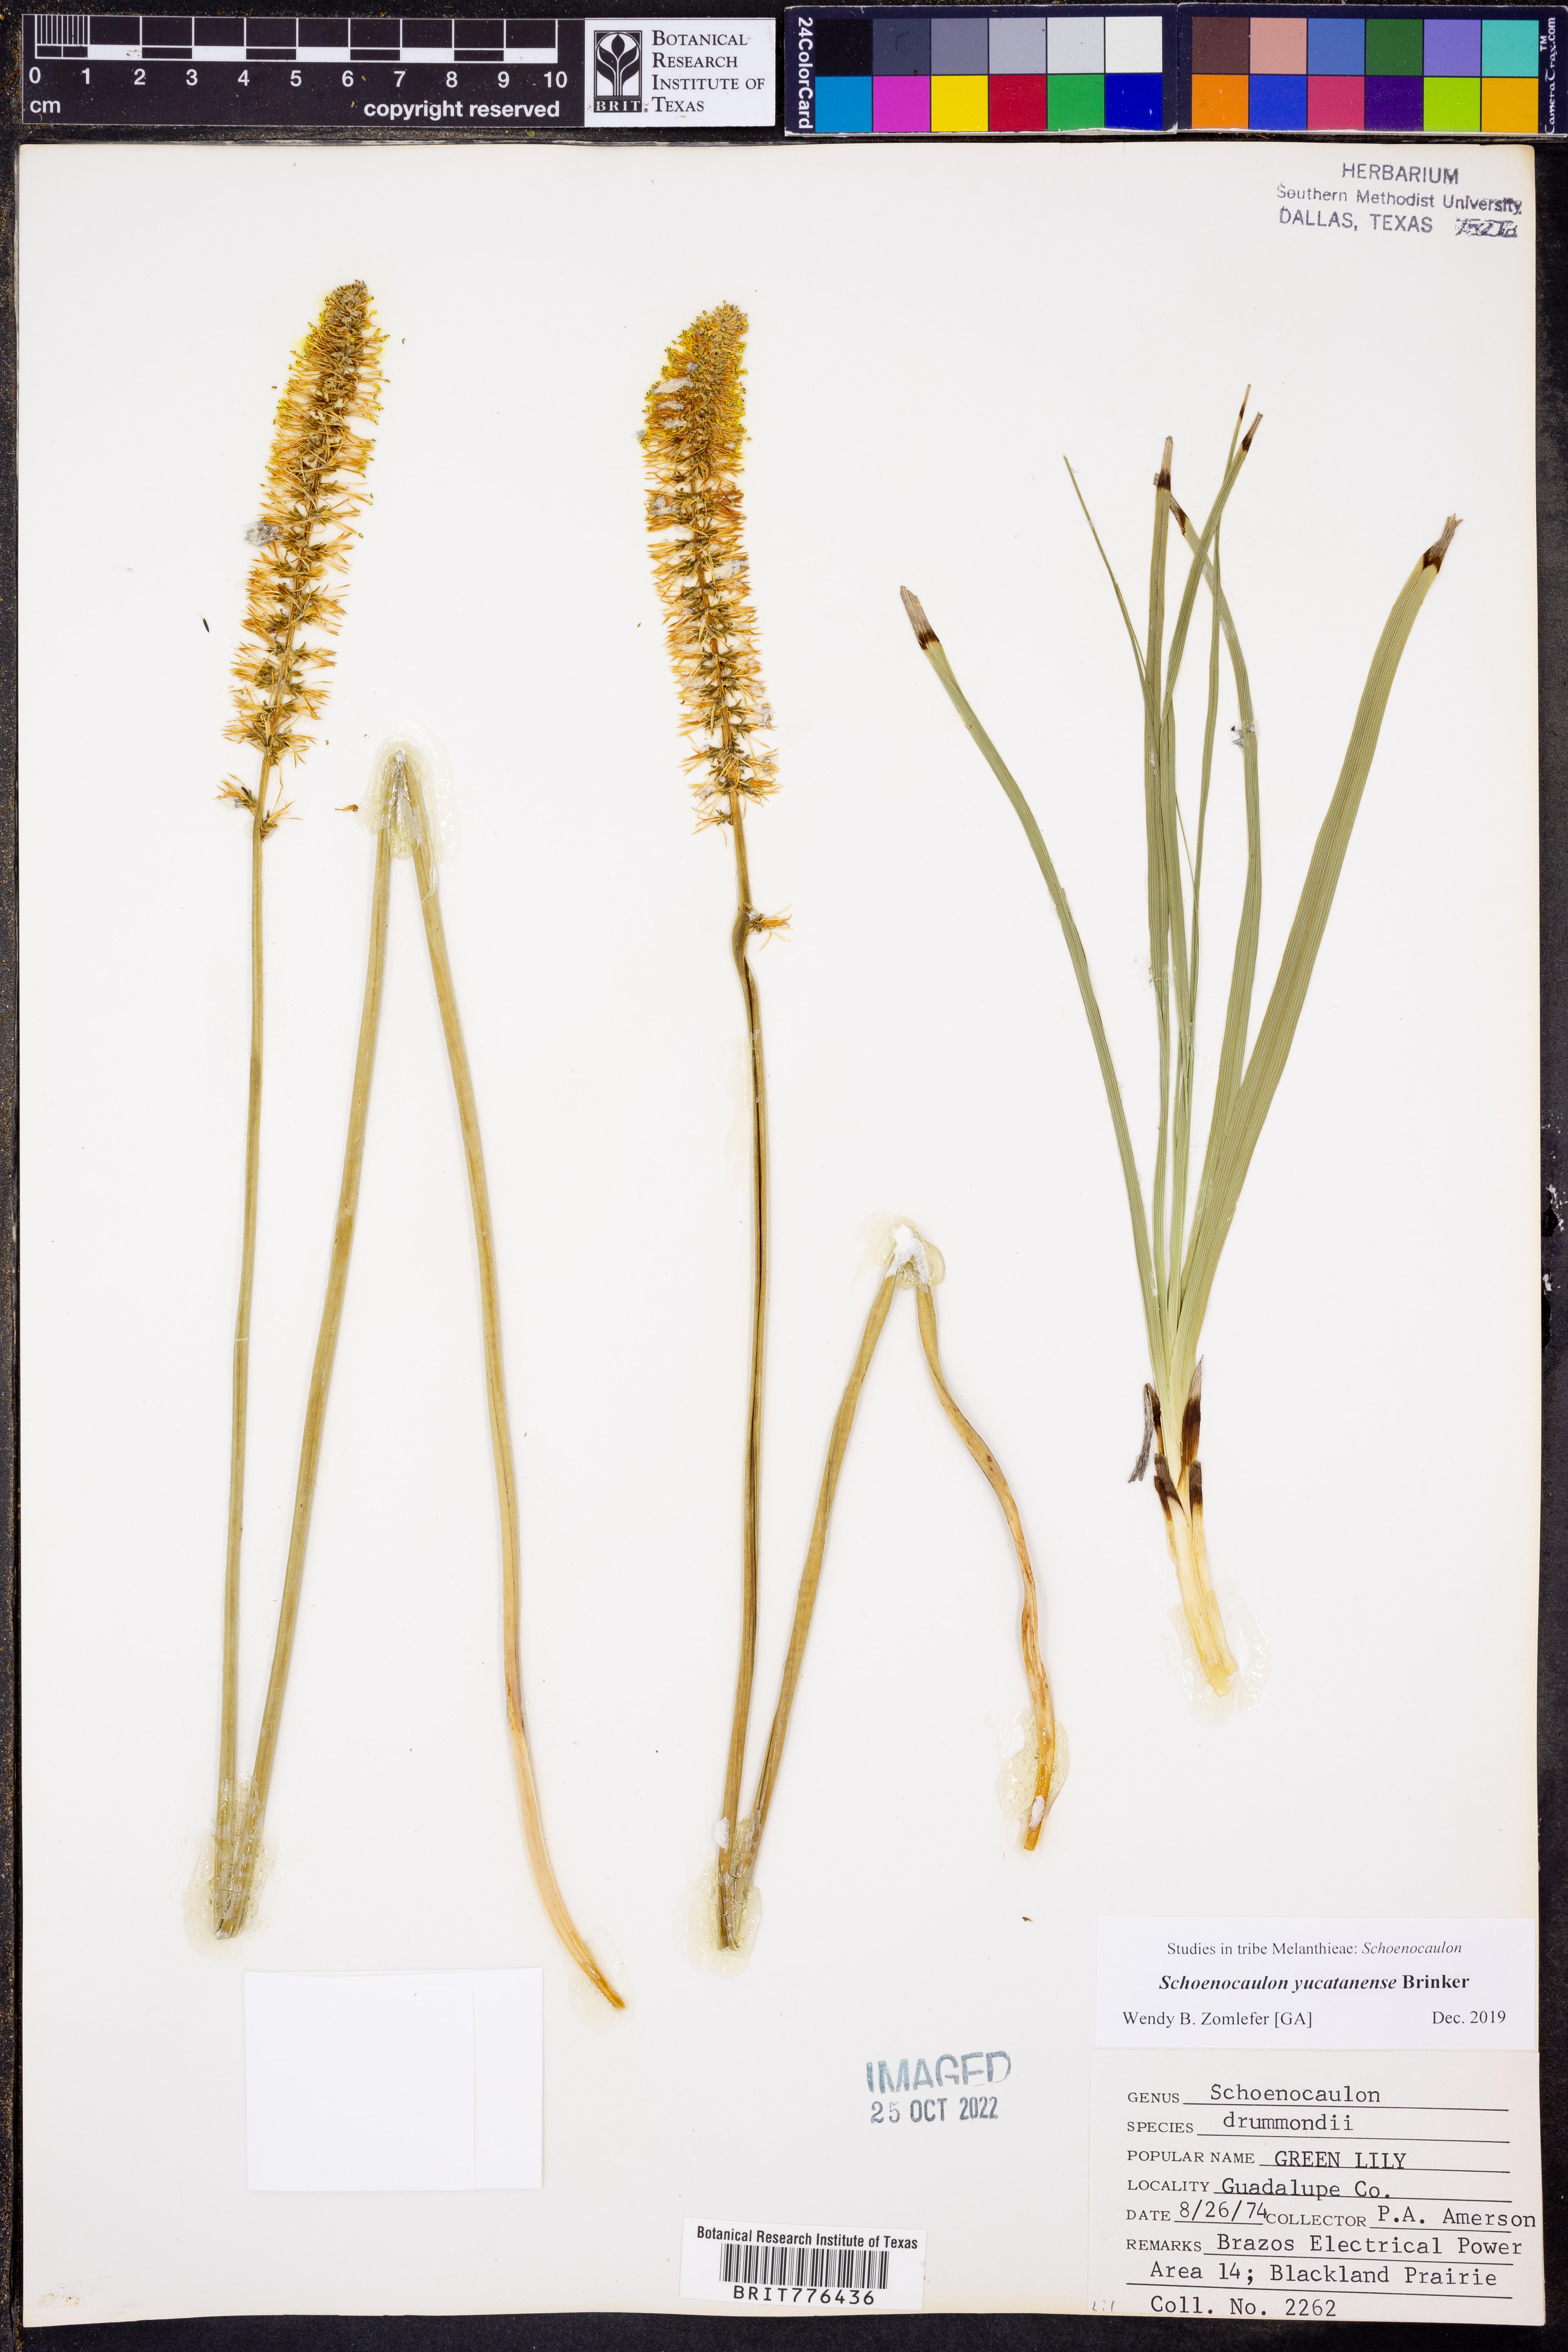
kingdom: Plantae
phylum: Tracheophyta
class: Liliopsida
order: Liliales
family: Melanthiaceae
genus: Schoenocaulon
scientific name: Schoenocaulon ghiesbreghtii
